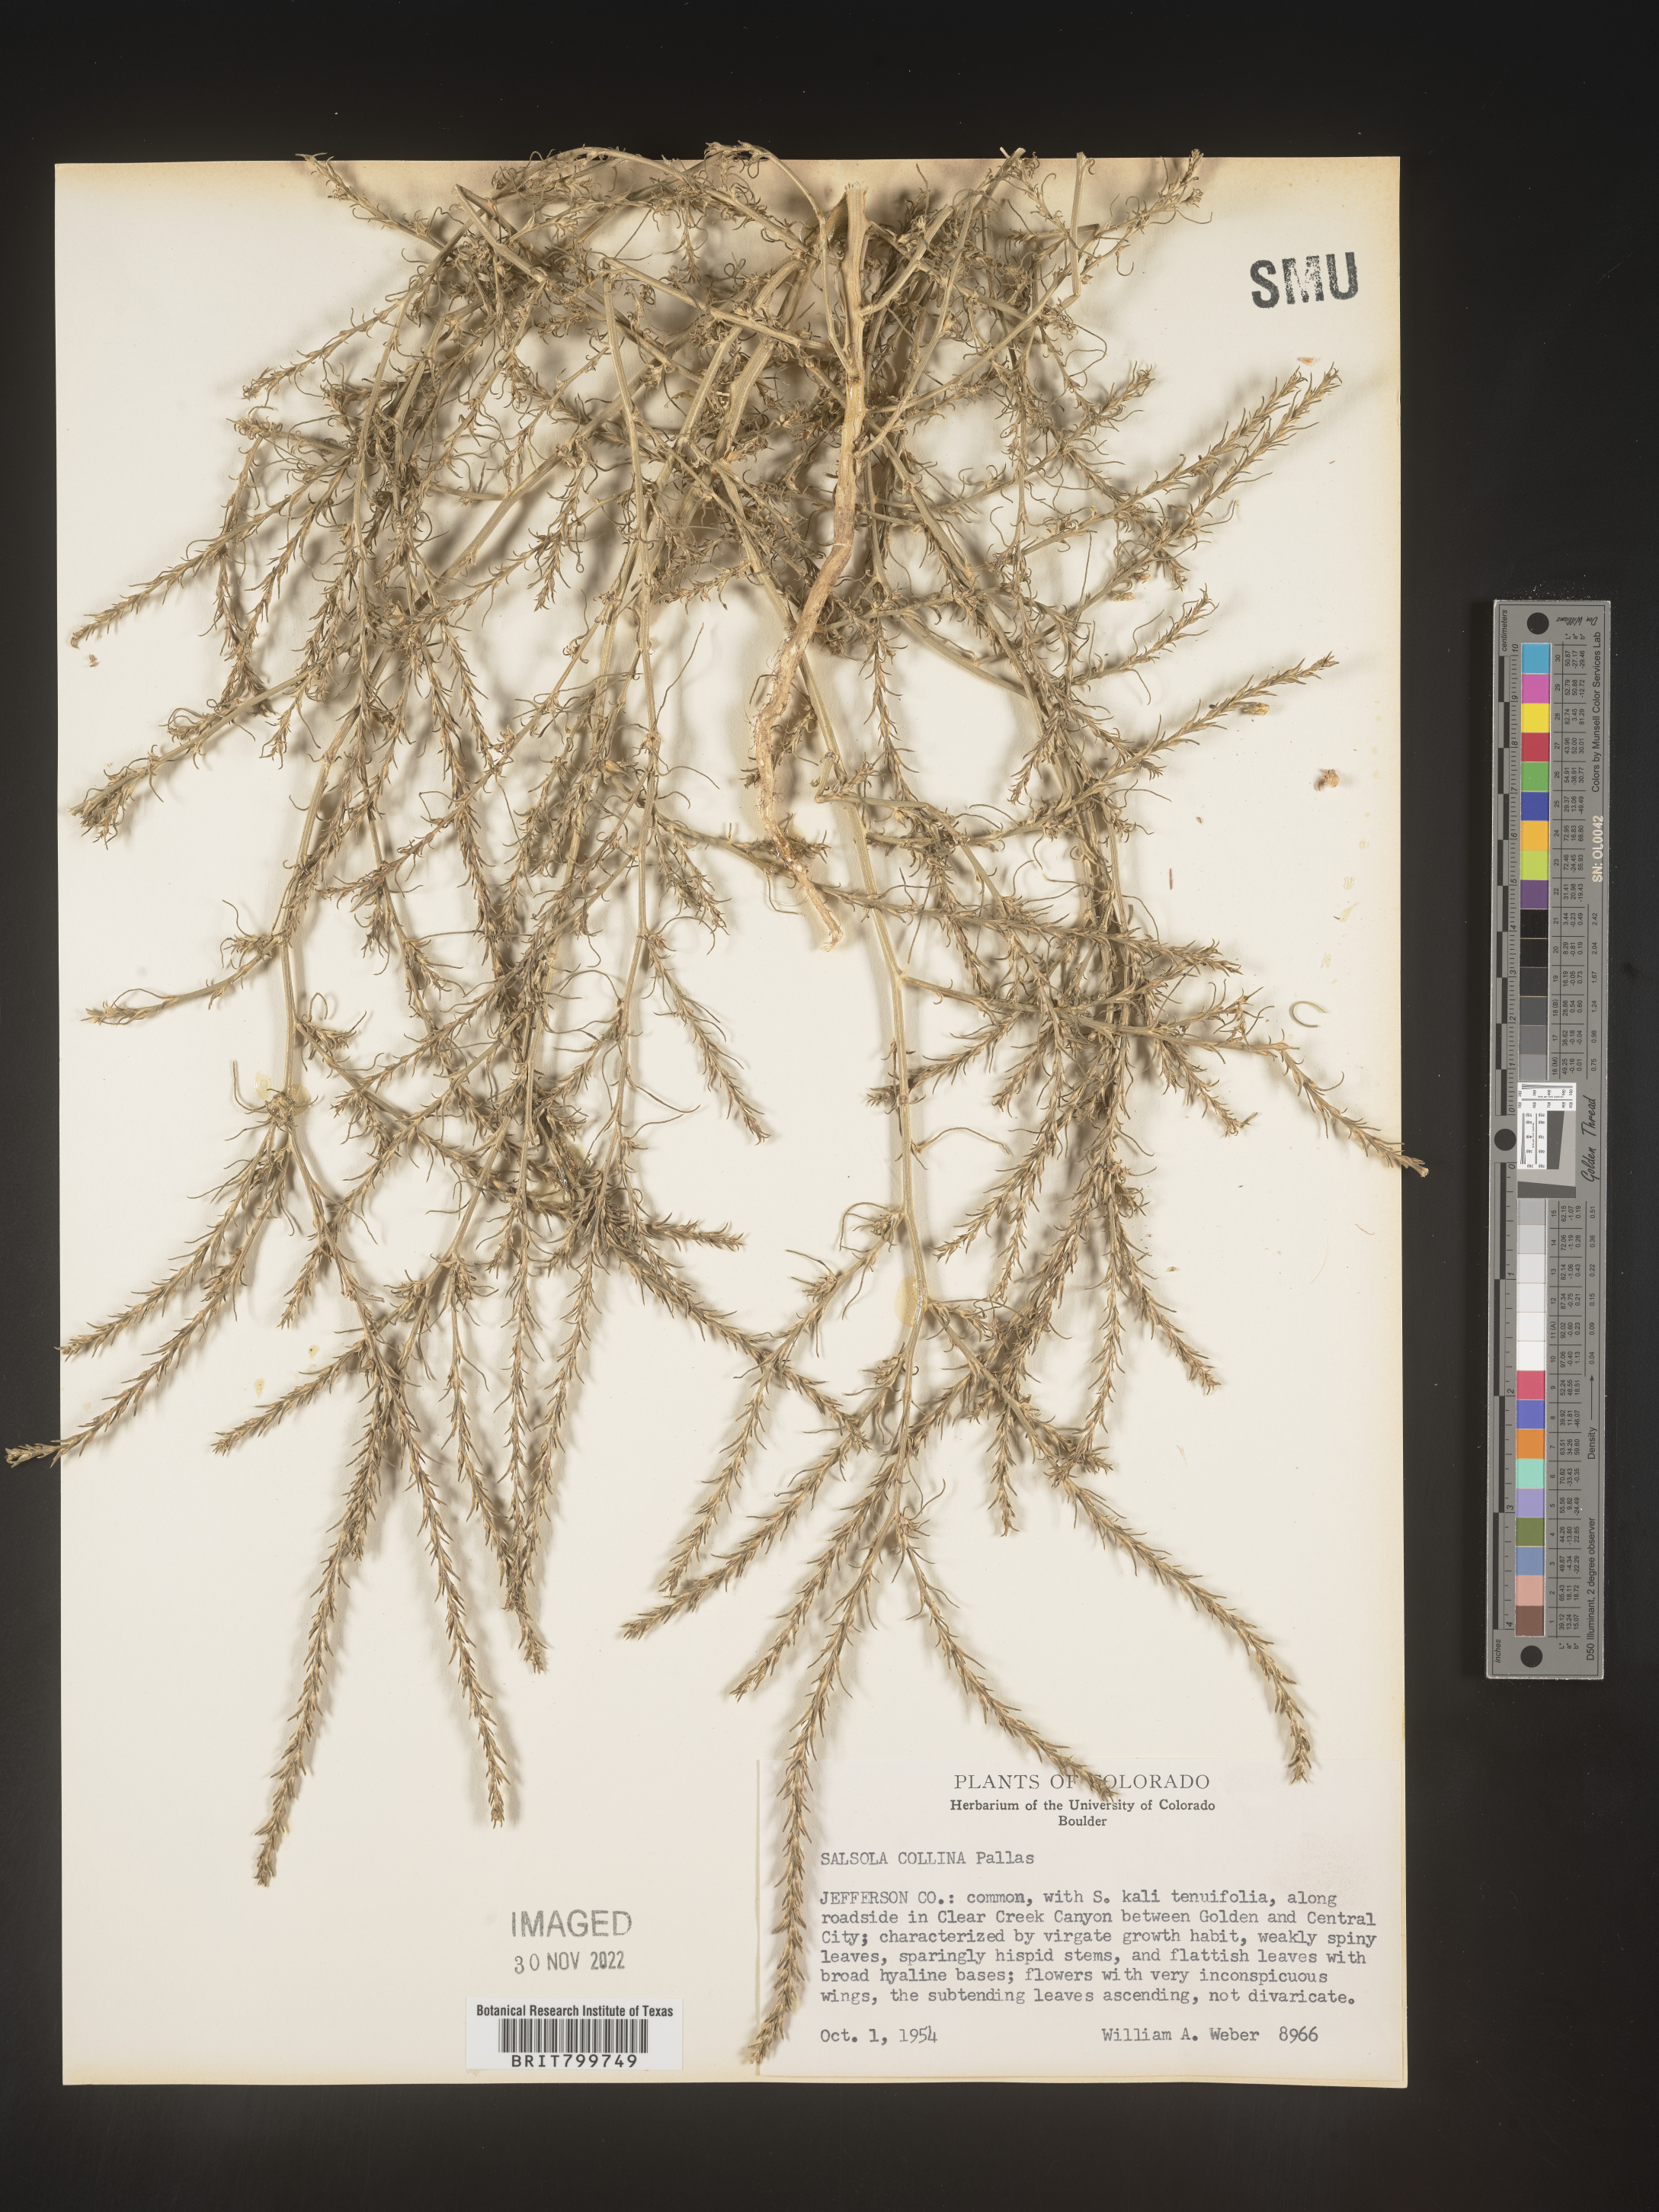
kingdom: Plantae
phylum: Tracheophyta
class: Magnoliopsida
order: Caryophyllales
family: Amaranthaceae
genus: Salsola
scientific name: Salsola collina
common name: Tumbleweed
